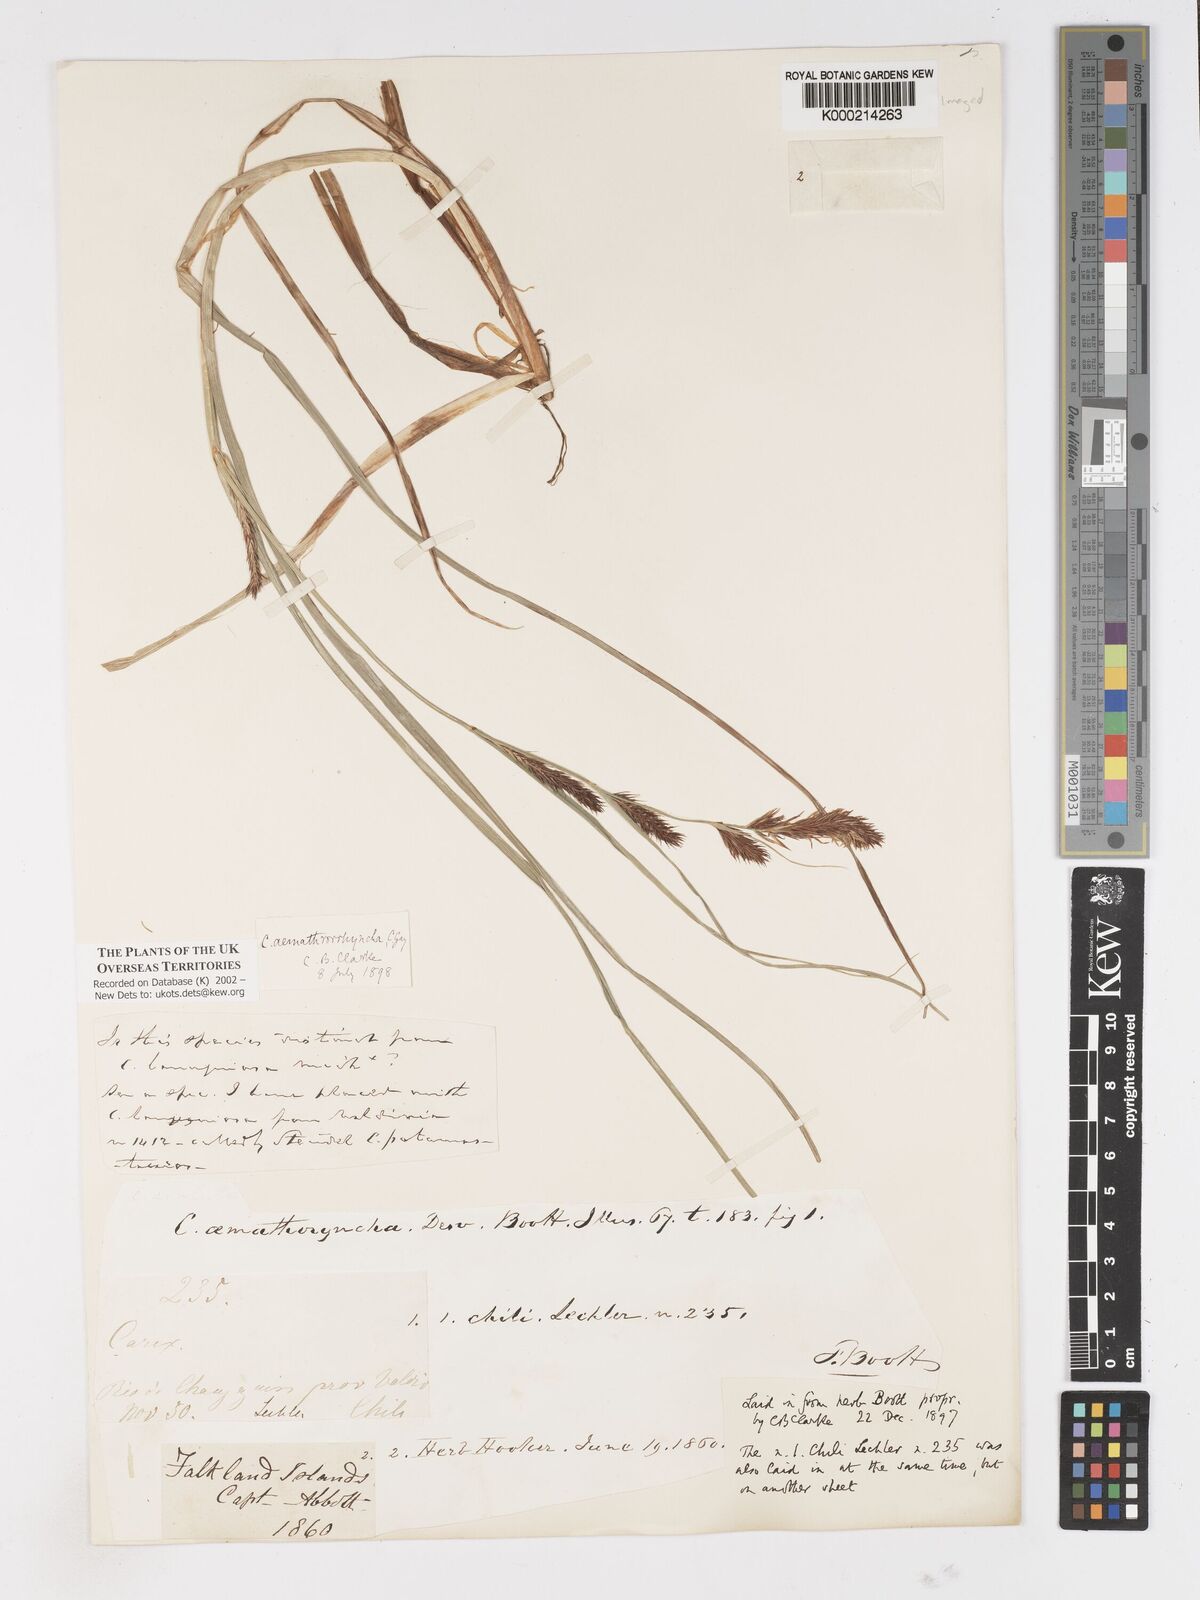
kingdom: Plantae
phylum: Tracheophyta
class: Liliopsida
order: Poales
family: Cyperaceae
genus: Carex
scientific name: Carex aematorhyncha
